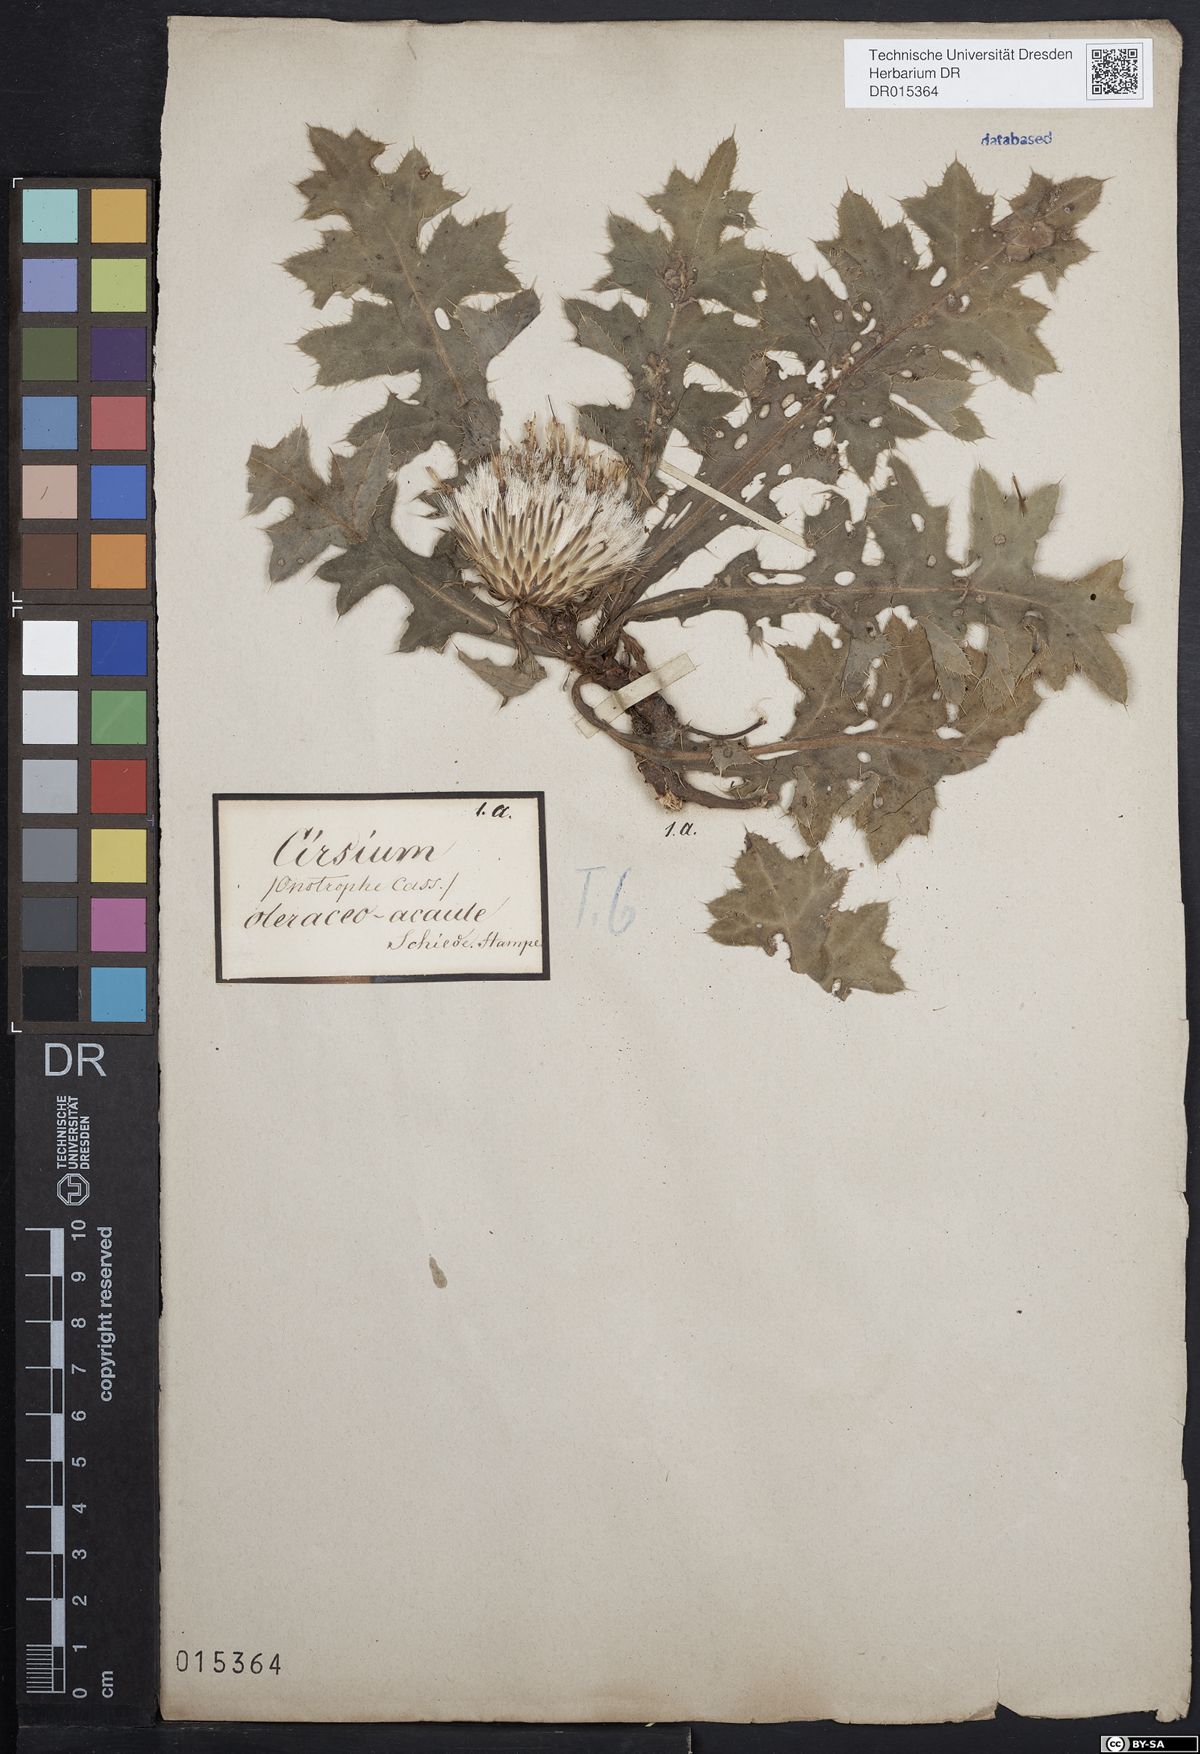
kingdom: Plantae
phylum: Tracheophyta
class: Magnoliopsida
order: Asterales
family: Asteraceae
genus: Cirsium
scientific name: Cirsium rigens
